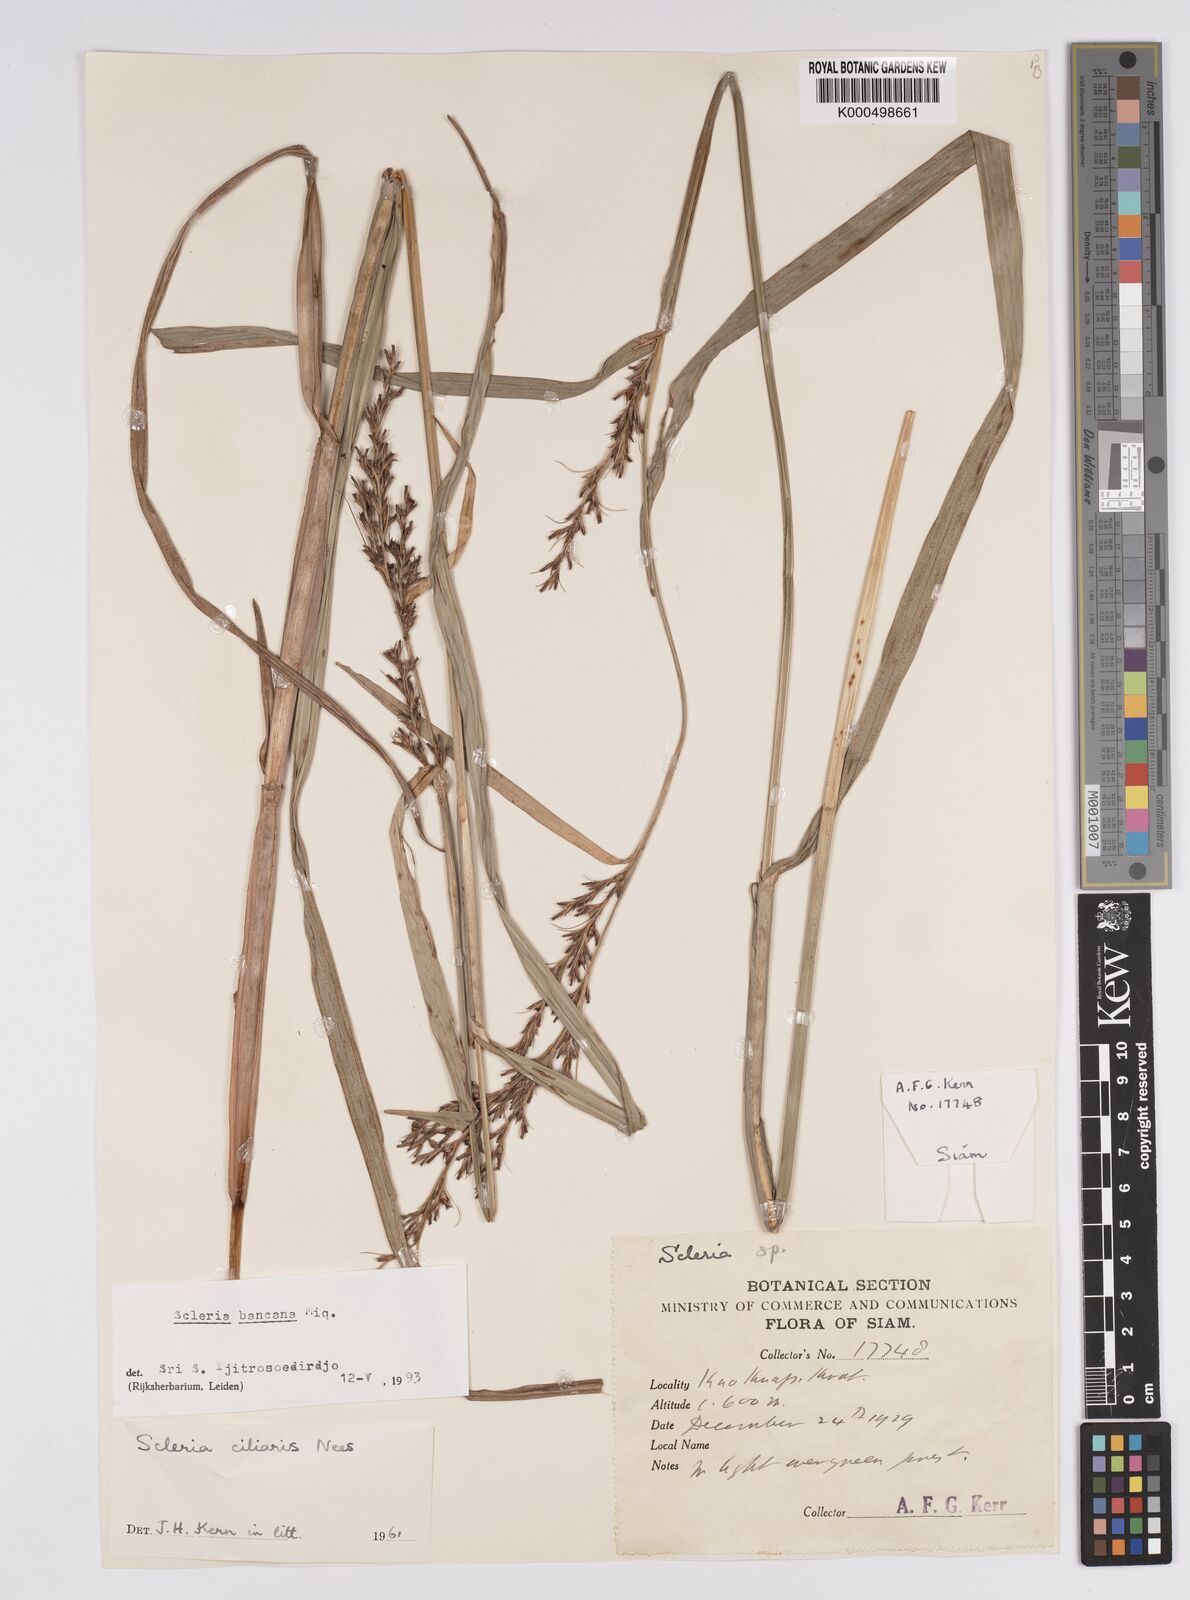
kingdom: Plantae
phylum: Tracheophyta
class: Liliopsida
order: Poales
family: Cyperaceae
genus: Scleria
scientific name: Scleria ciliaris
